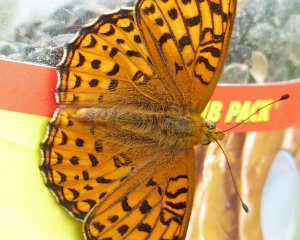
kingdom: Animalia
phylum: Arthropoda
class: Insecta
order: Lepidoptera
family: Nymphalidae
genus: Speyeria
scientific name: Speyeria zerene
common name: Zerene Fritillary
